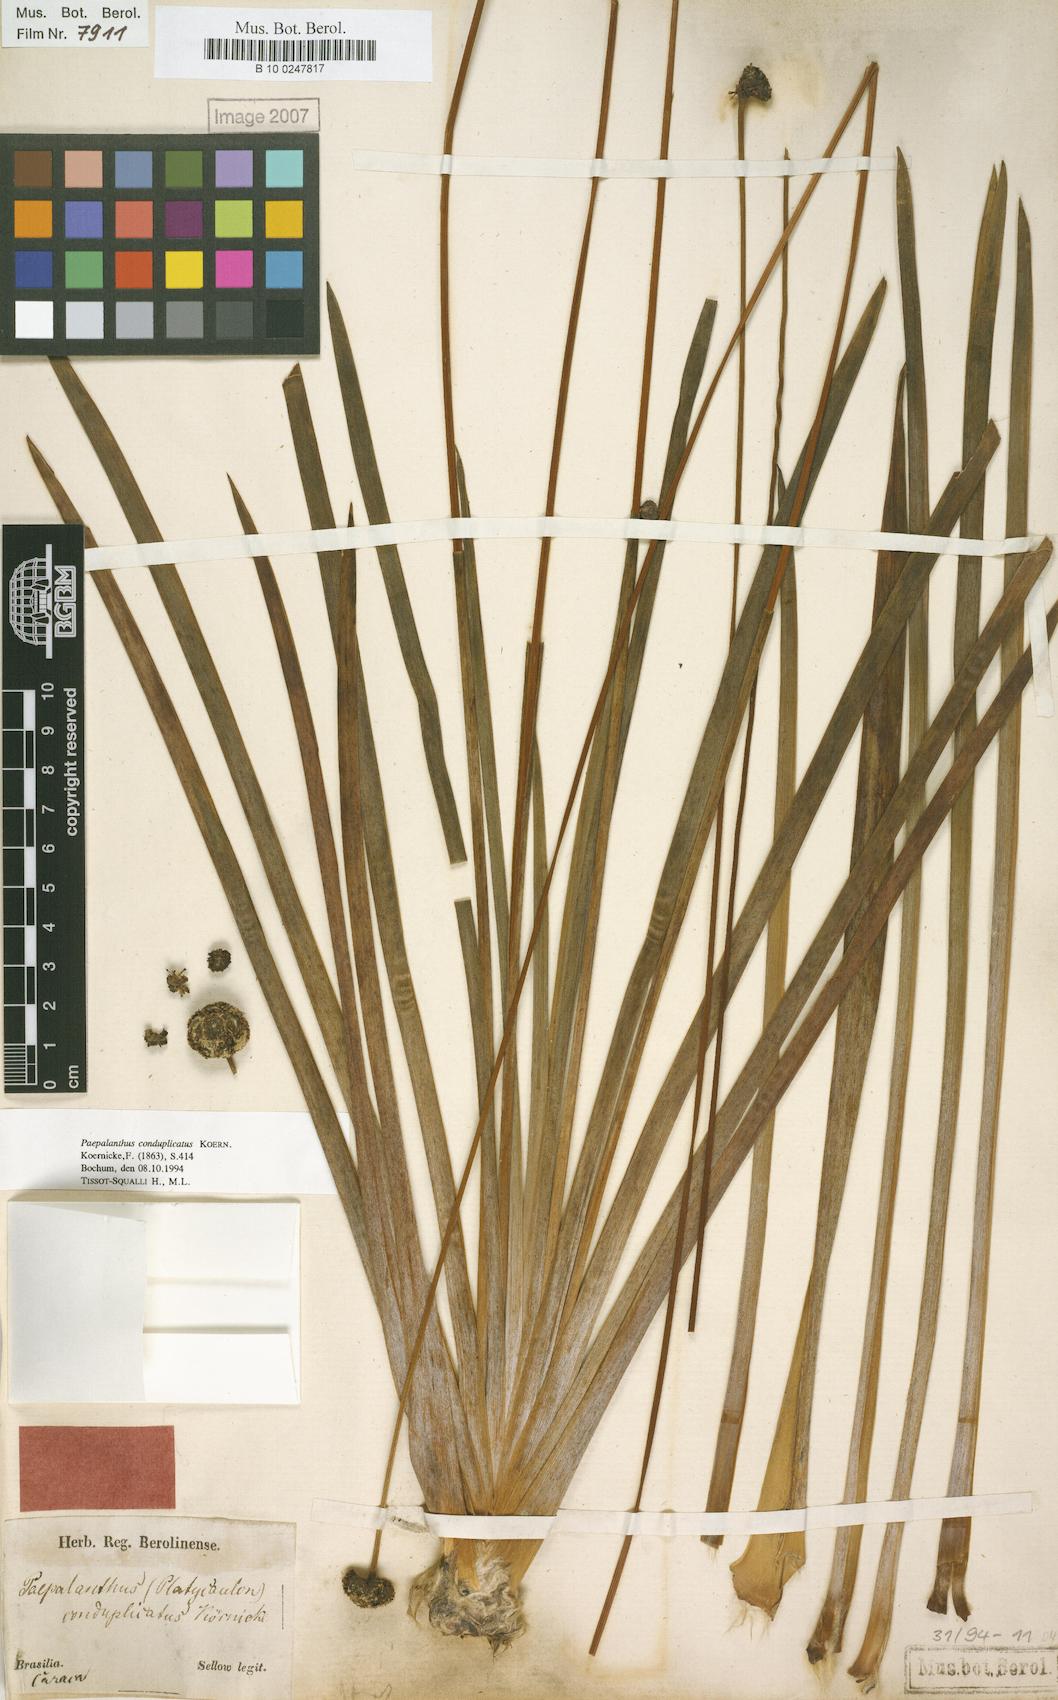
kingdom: Plantae
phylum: Tracheophyta
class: Liliopsida
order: Poales
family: Eriocaulaceae
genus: Paepalanthus
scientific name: Paepalanthus conduplicatus
